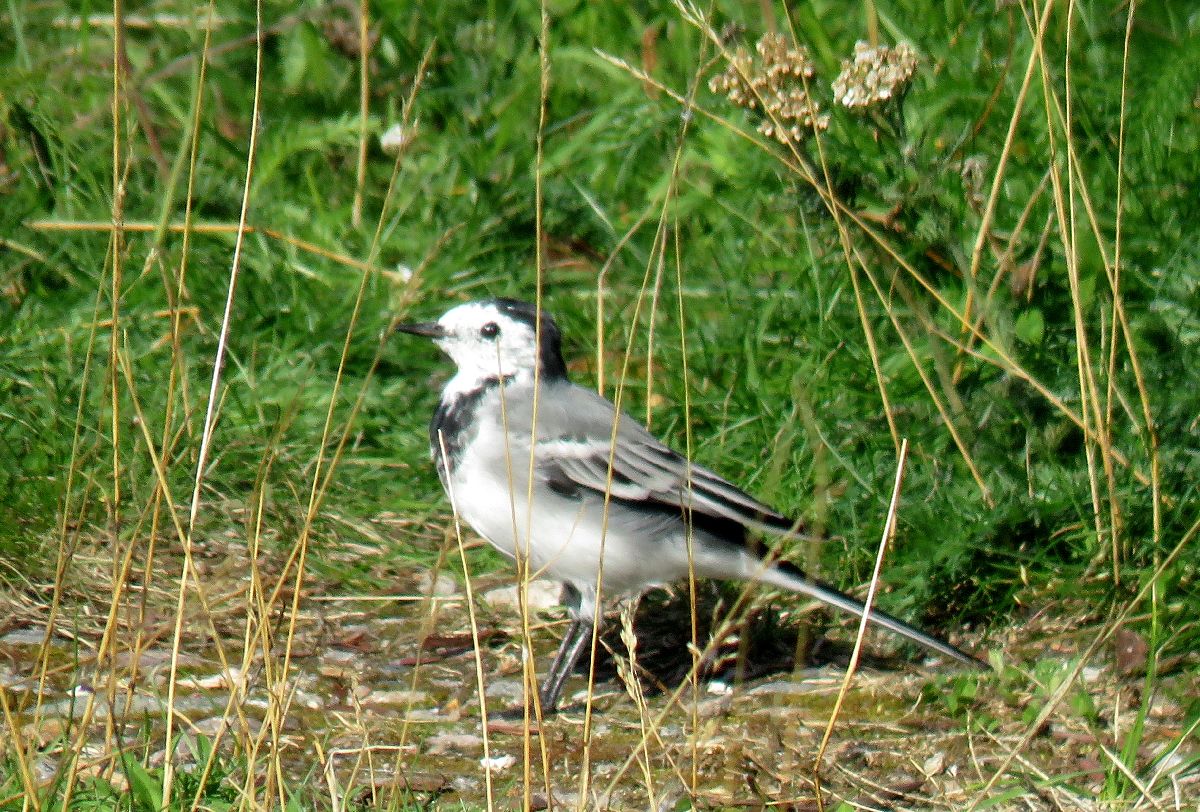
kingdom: Animalia
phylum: Chordata
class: Aves
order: Passeriformes
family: Motacillidae
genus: Motacilla
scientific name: Motacilla alba
